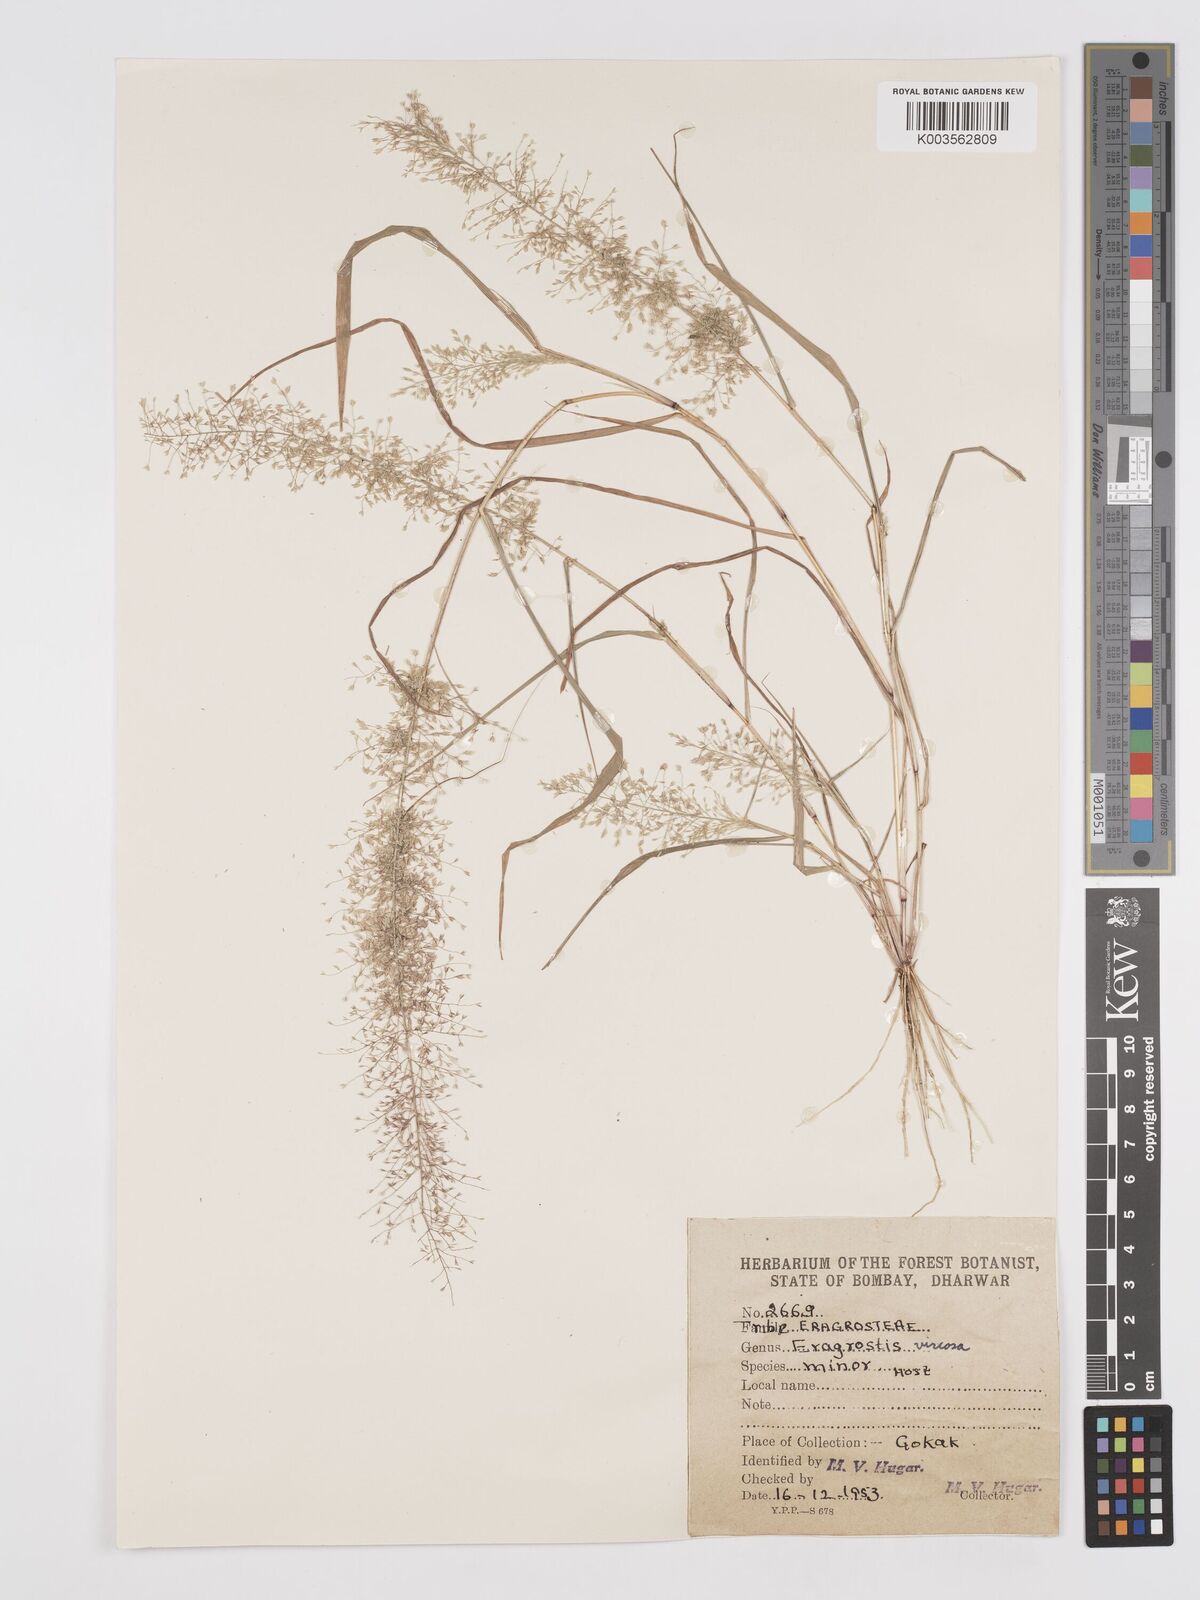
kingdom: Plantae
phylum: Tracheophyta
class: Liliopsida
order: Poales
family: Poaceae
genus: Eragrostis
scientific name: Eragrostis viscosa
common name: Sticky love grass
